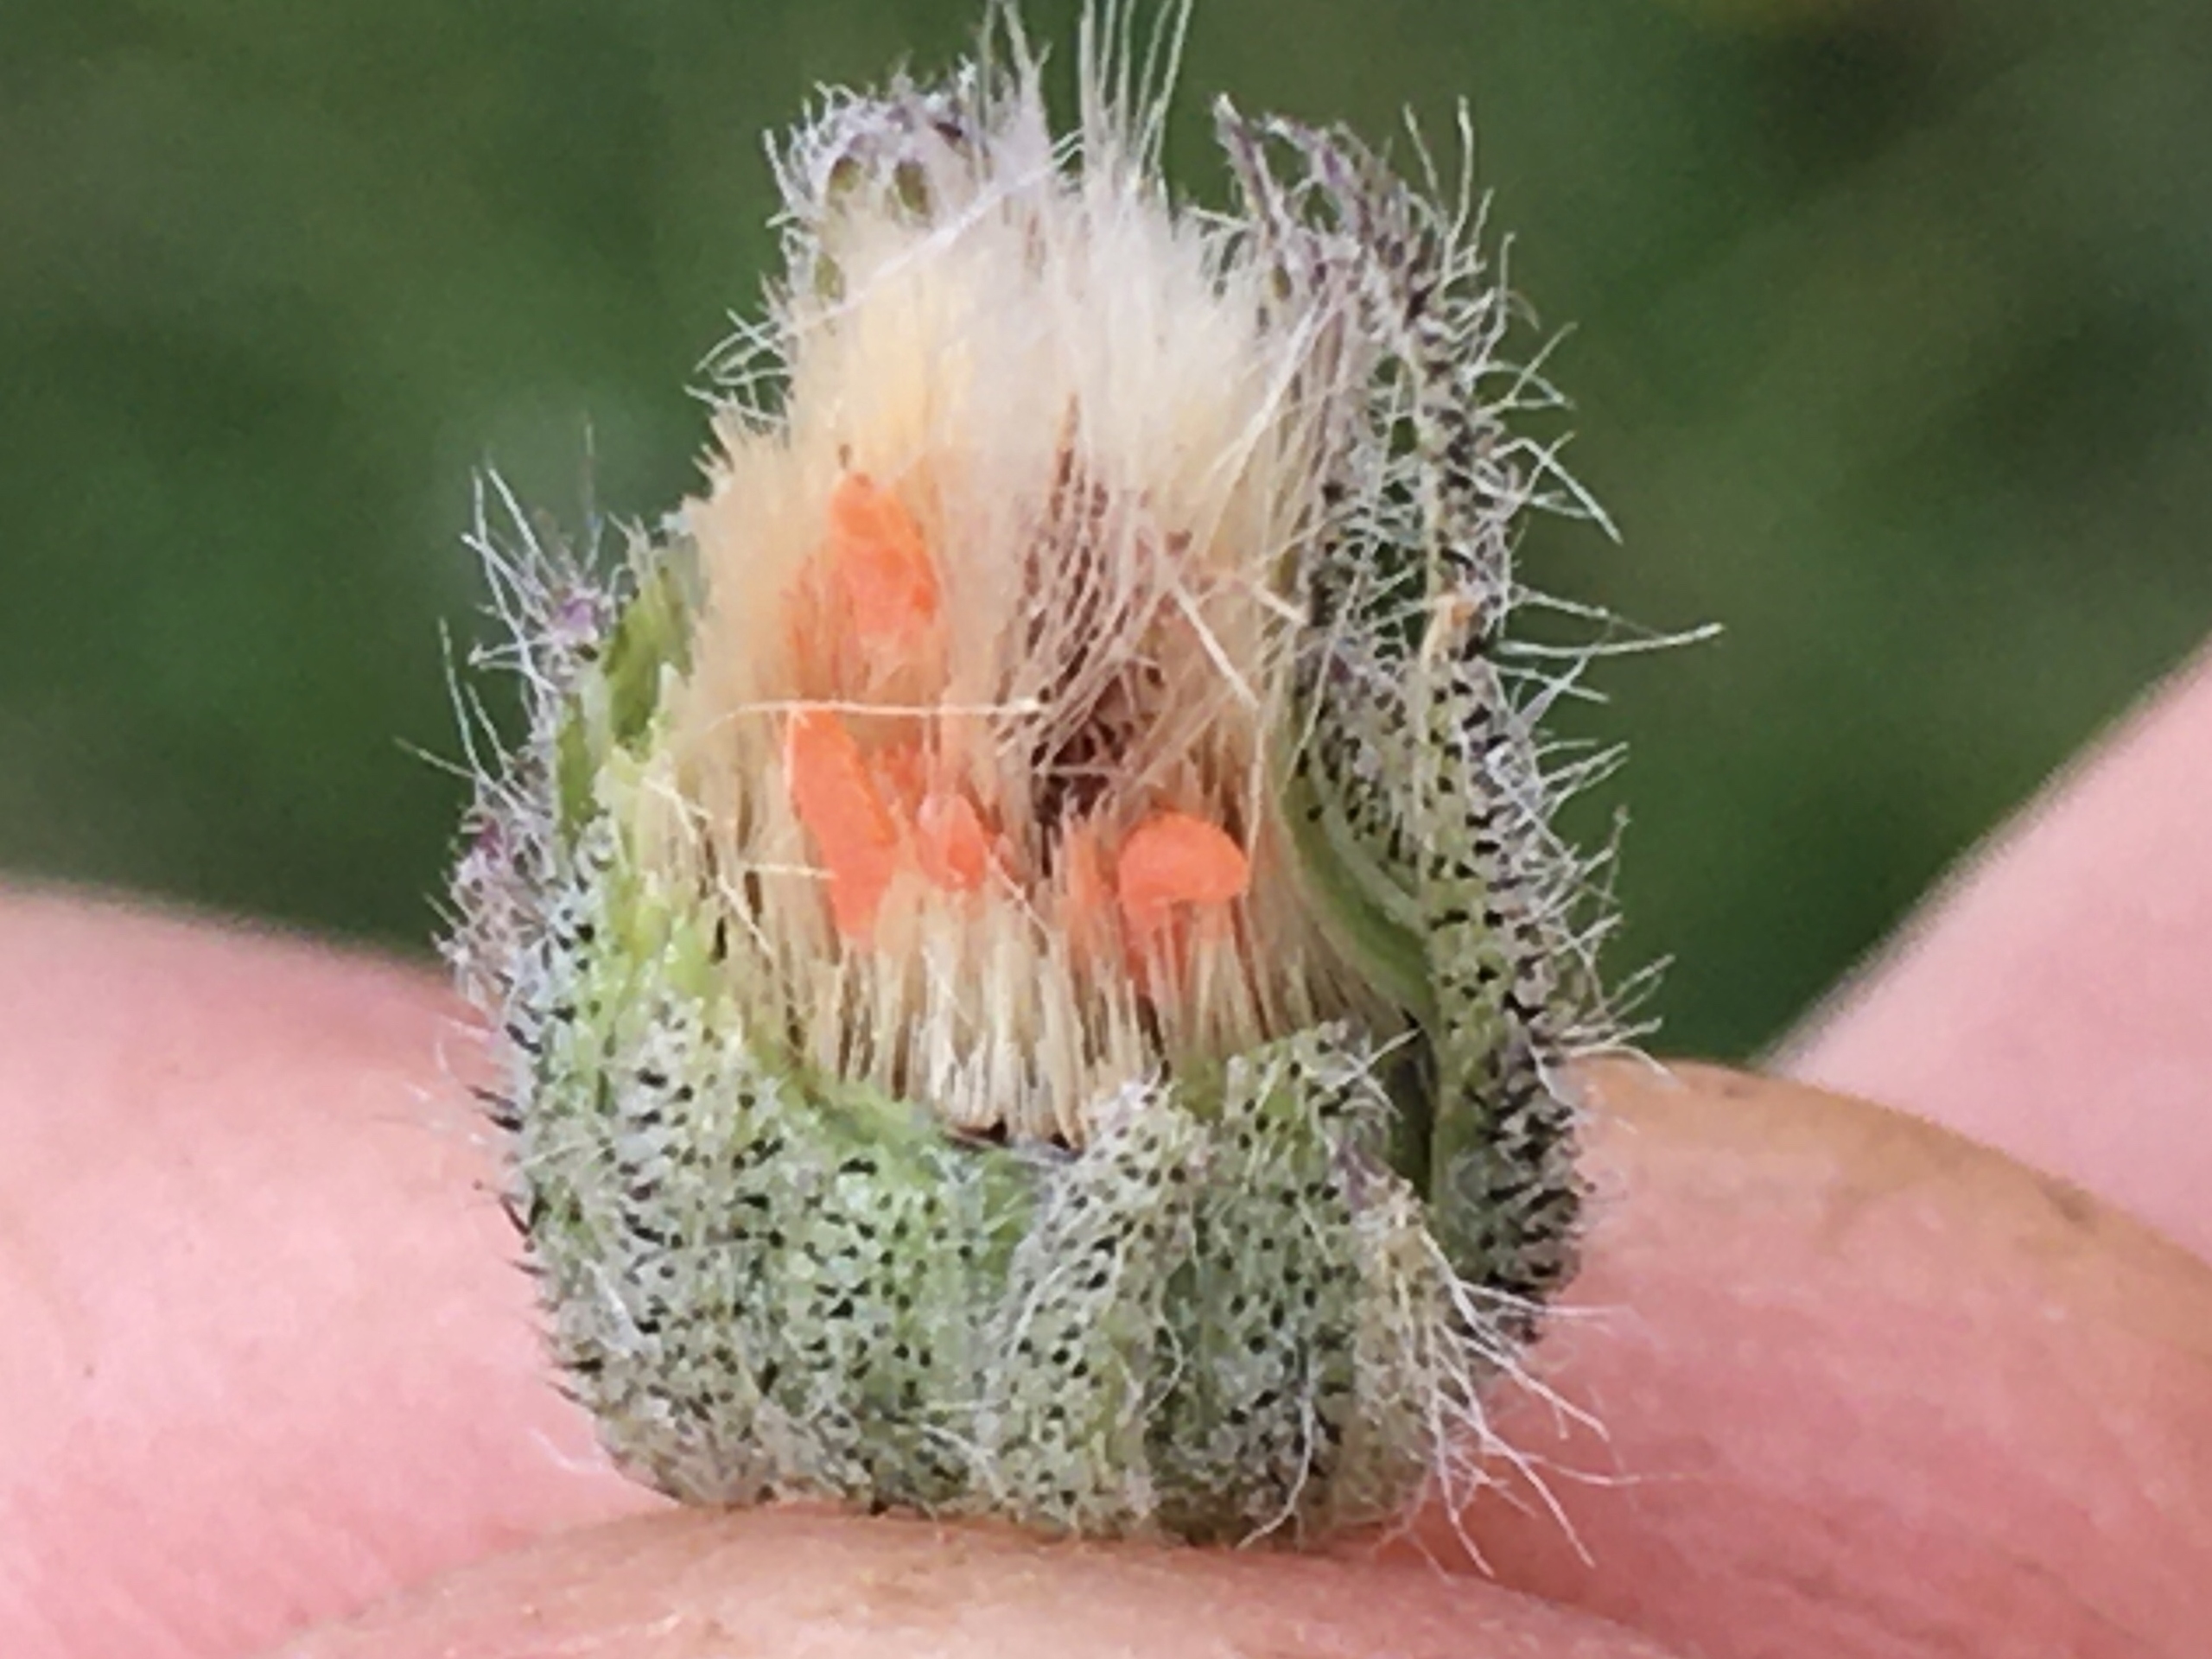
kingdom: Animalia
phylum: Arthropoda
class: Insecta
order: Diptera
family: Cecidomyiidae
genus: Contarinia
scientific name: Contarinia pilosellae
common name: Høgeurtkurvgalmyg
